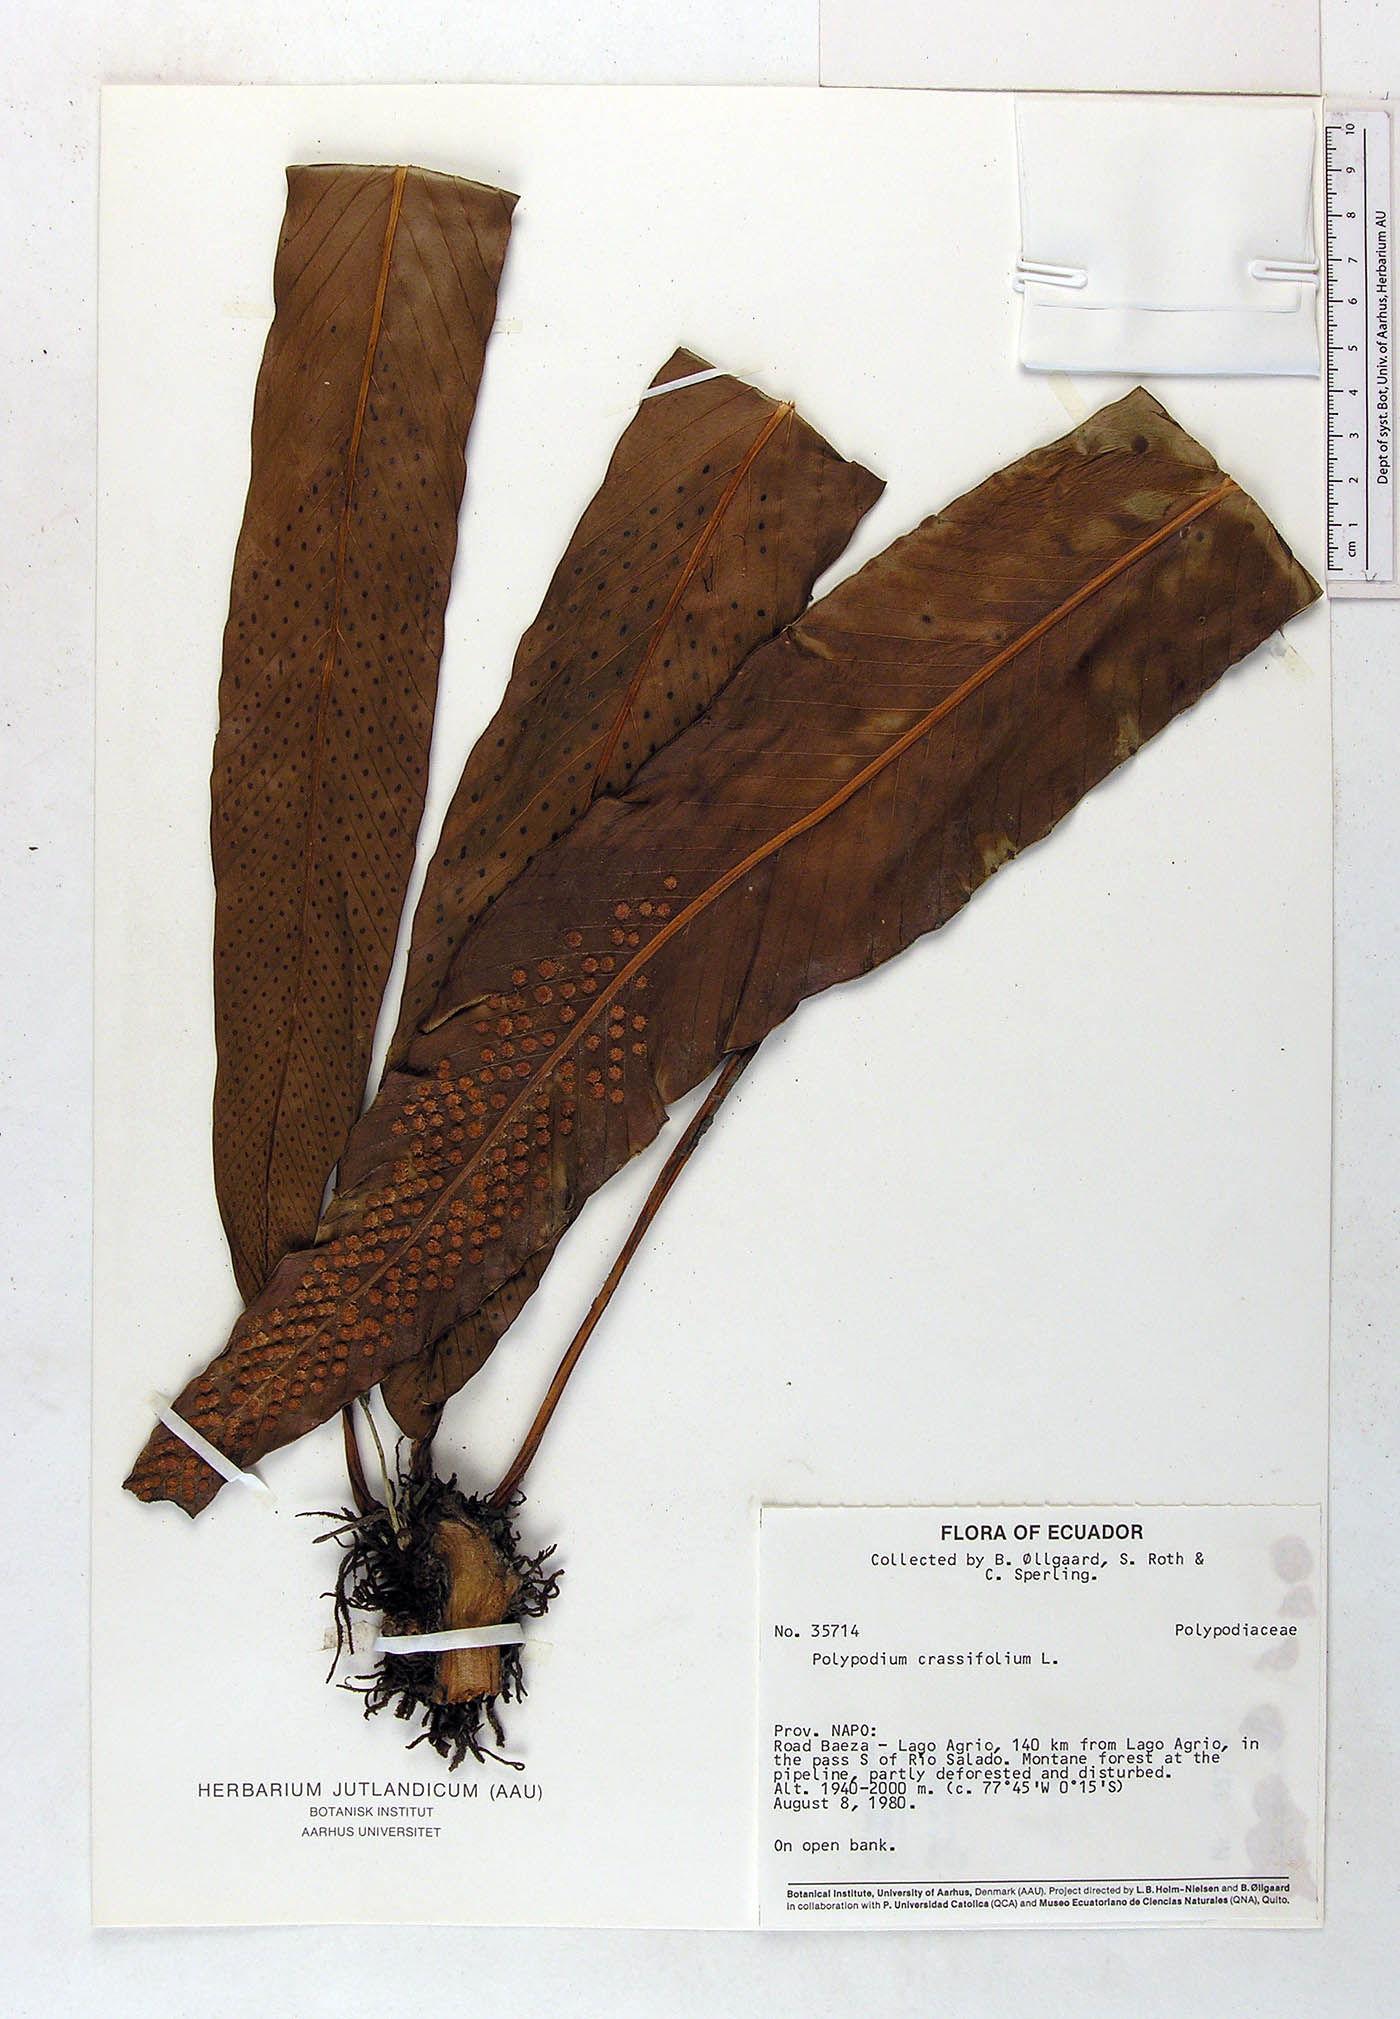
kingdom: Plantae
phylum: Tracheophyta
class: Polypodiopsida
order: Polypodiales
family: Polypodiaceae
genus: Niphidium
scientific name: Niphidium crassifolium
